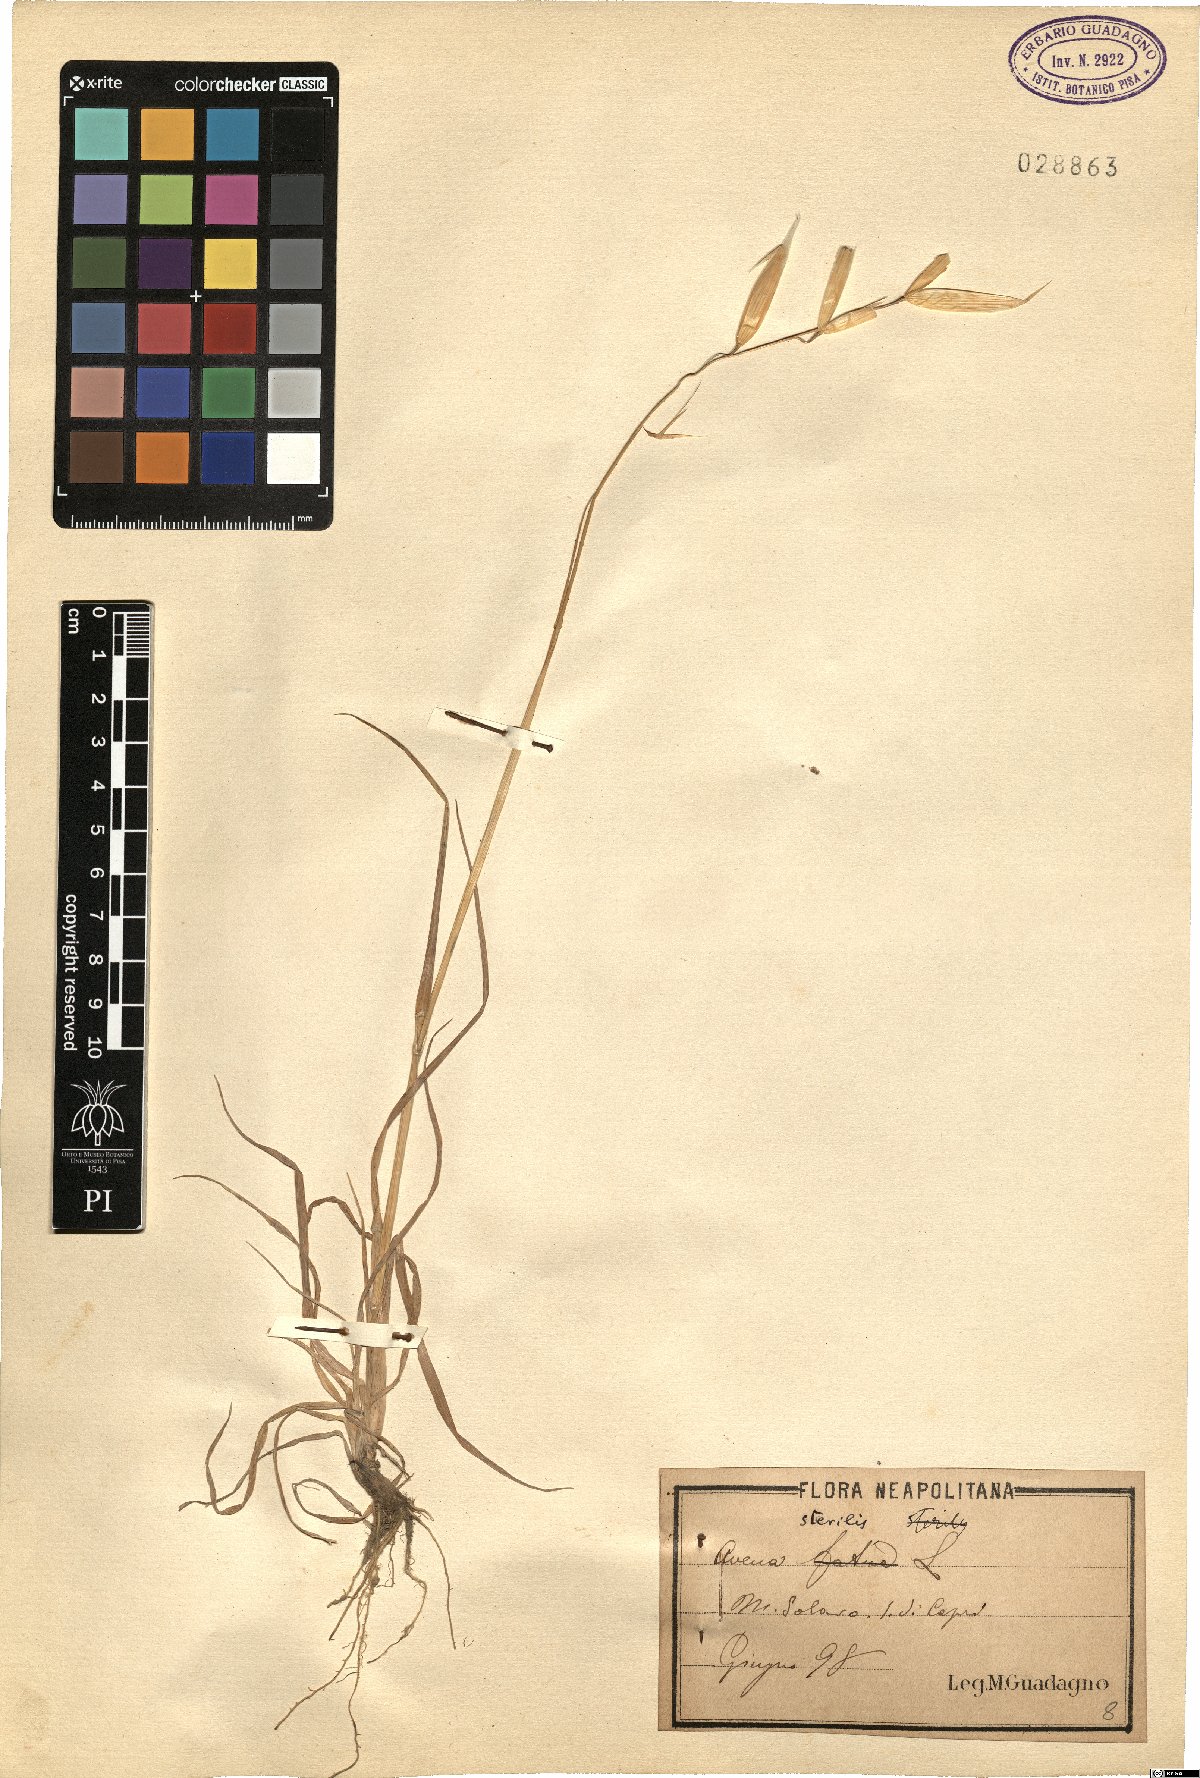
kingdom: Plantae
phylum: Tracheophyta
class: Liliopsida
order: Poales
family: Poaceae
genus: Avena
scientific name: Avena sterilis
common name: Animated oat
